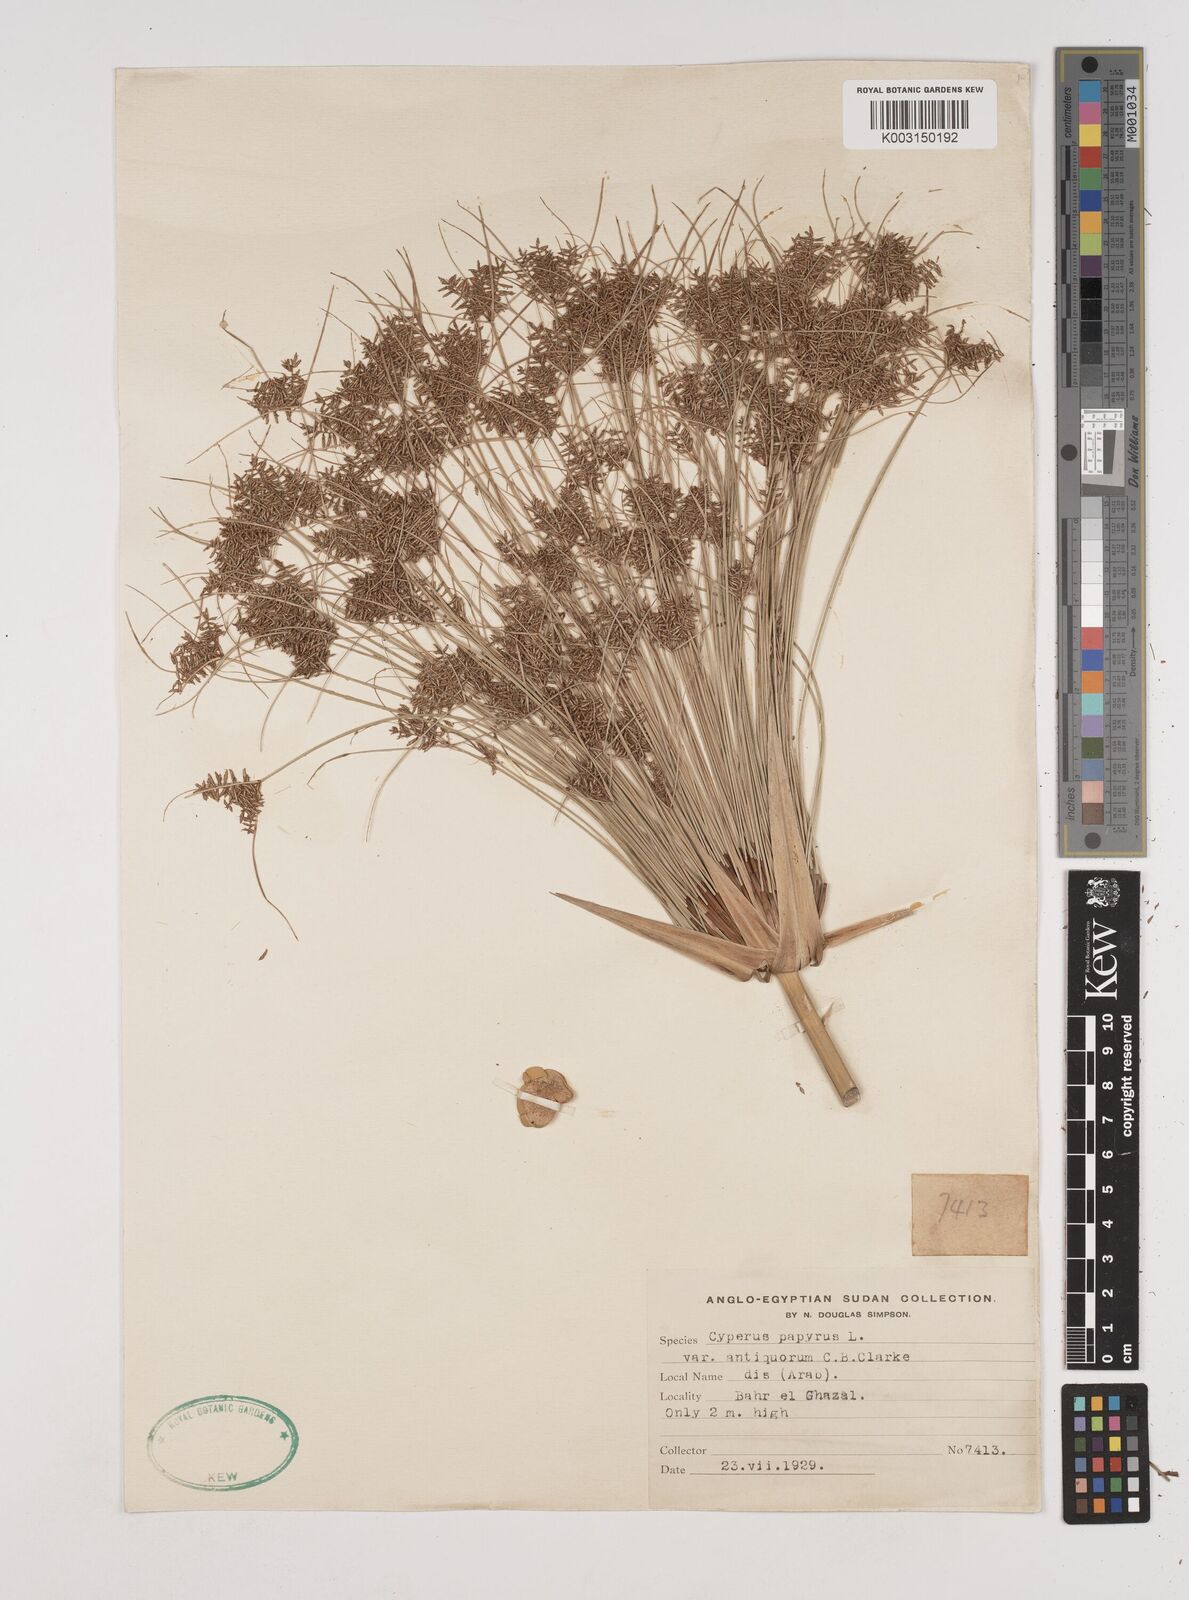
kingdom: Plantae
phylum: Tracheophyta
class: Liliopsida
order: Poales
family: Cyperaceae
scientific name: Cyperaceae
